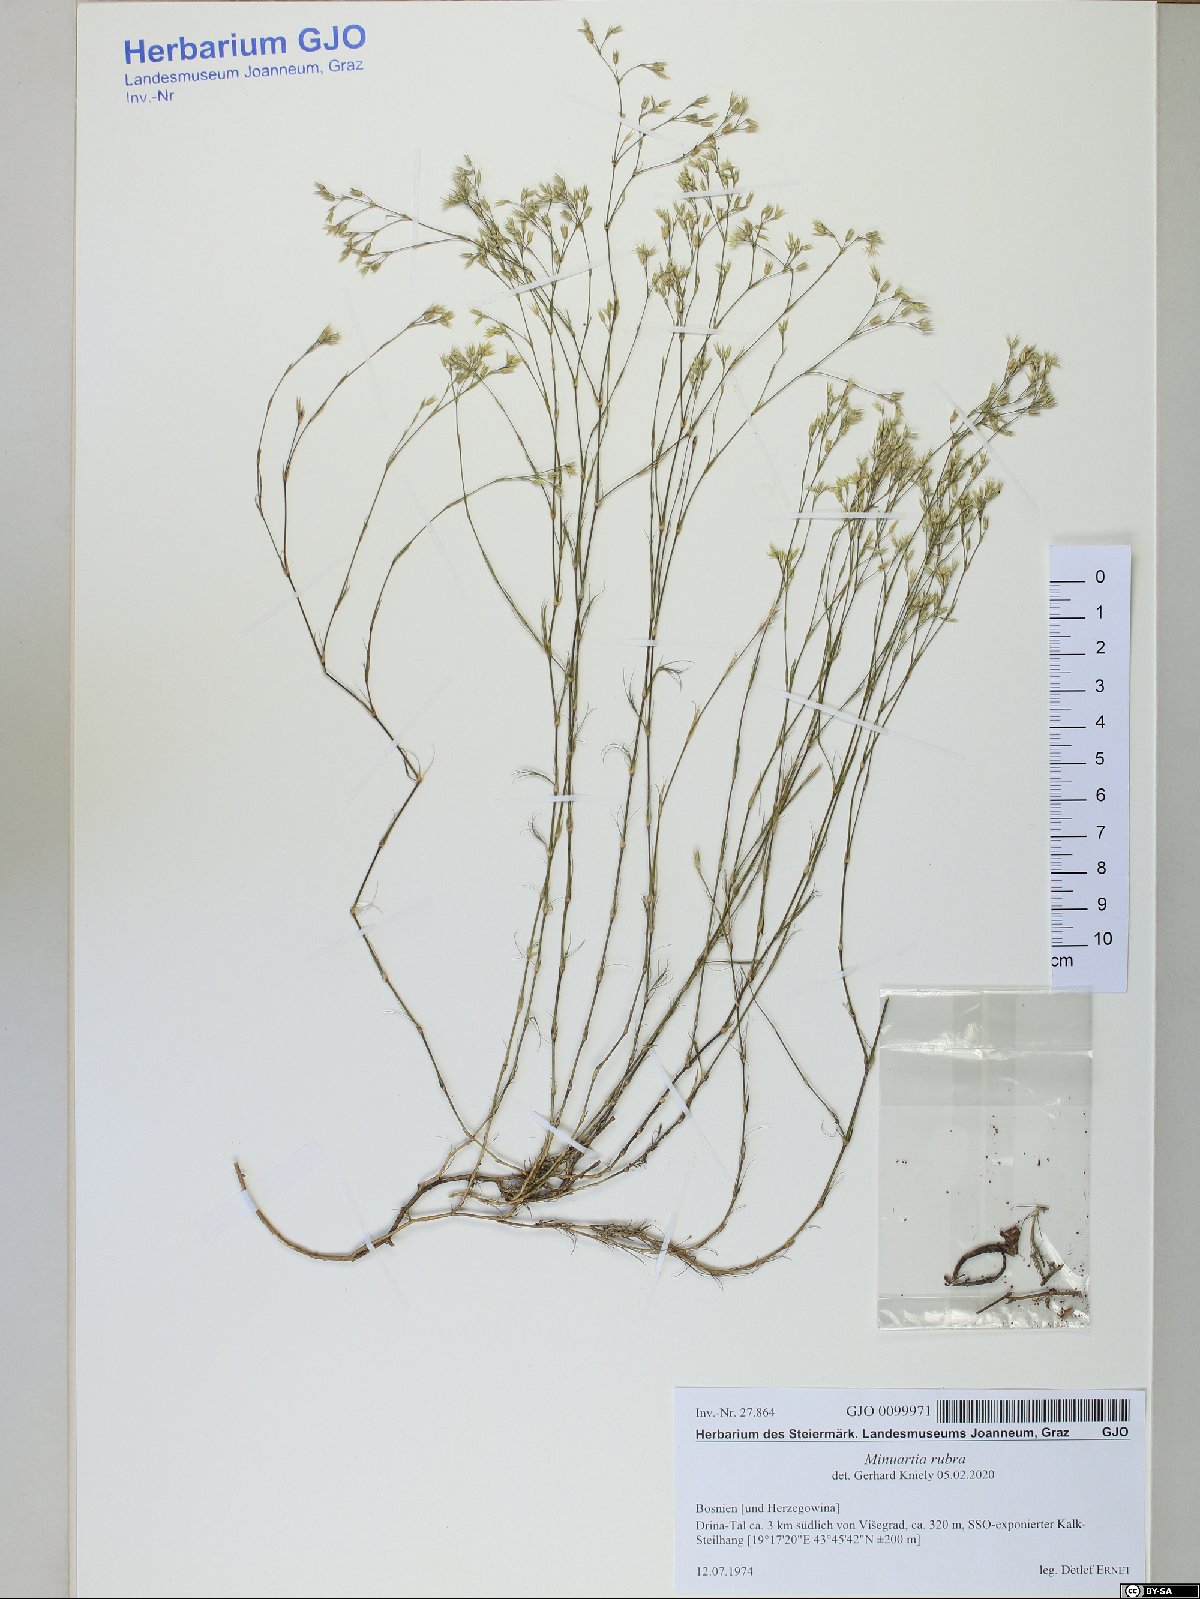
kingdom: Plantae
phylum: Tracheophyta
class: Magnoliopsida
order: Caryophyllales
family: Caryophyllaceae
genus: Minuartia
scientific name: Minuartia mucronata
